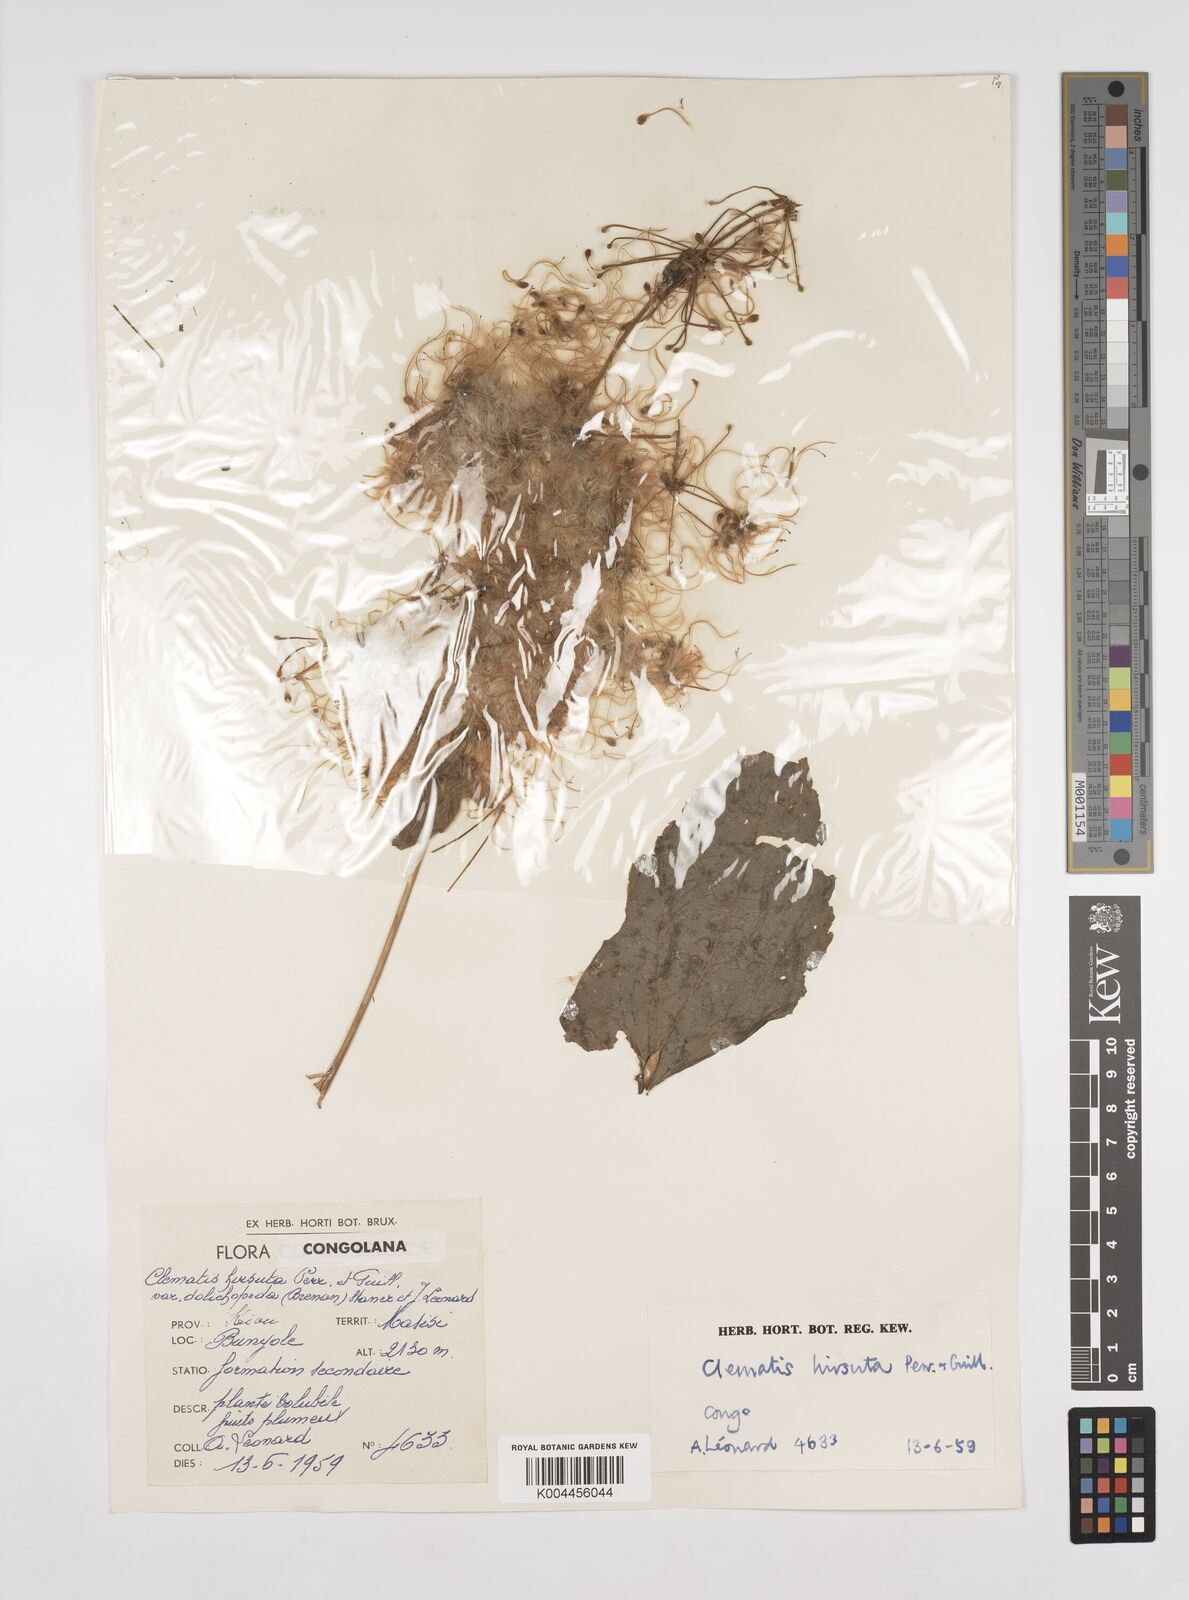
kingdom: Plantae
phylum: Tracheophyta
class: Magnoliopsida
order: Ranunculales
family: Ranunculaceae
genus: Clematis
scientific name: Clematis hirsuta
